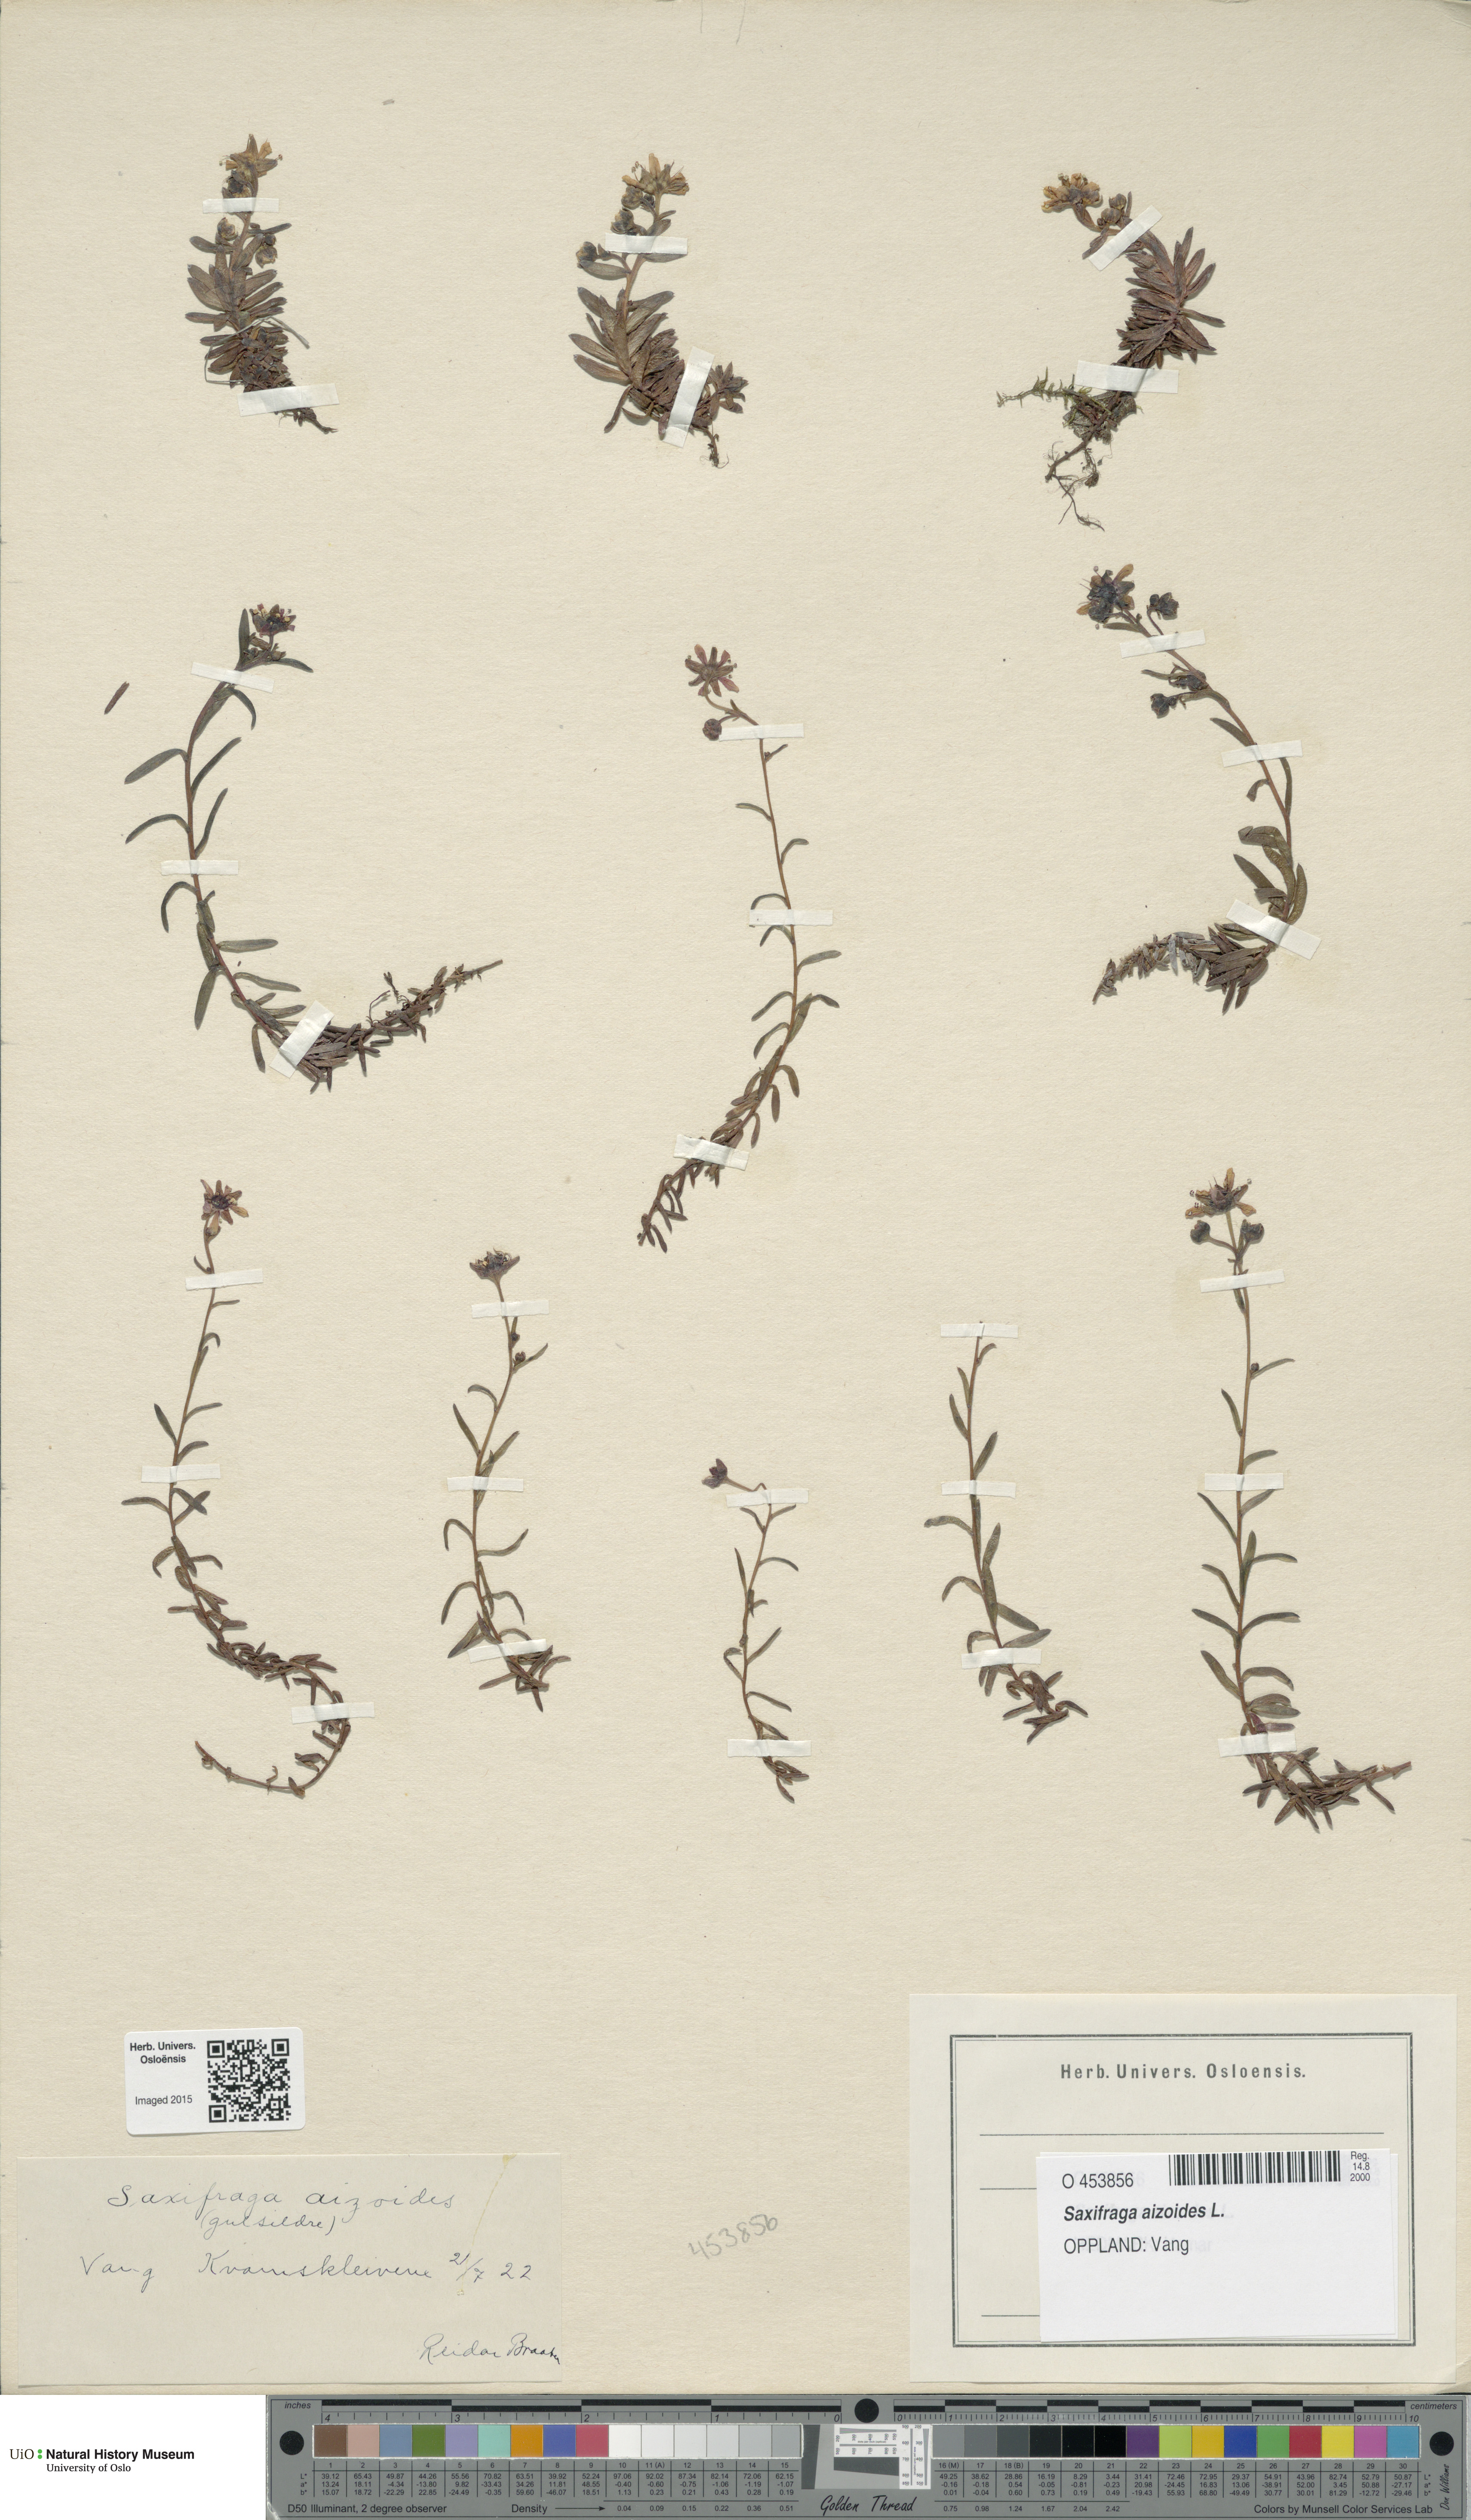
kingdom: Plantae
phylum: Tracheophyta
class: Magnoliopsida
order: Saxifragales
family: Saxifragaceae
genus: Saxifraga
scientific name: Saxifraga aizoides
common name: Yellow mountain saxifrage
